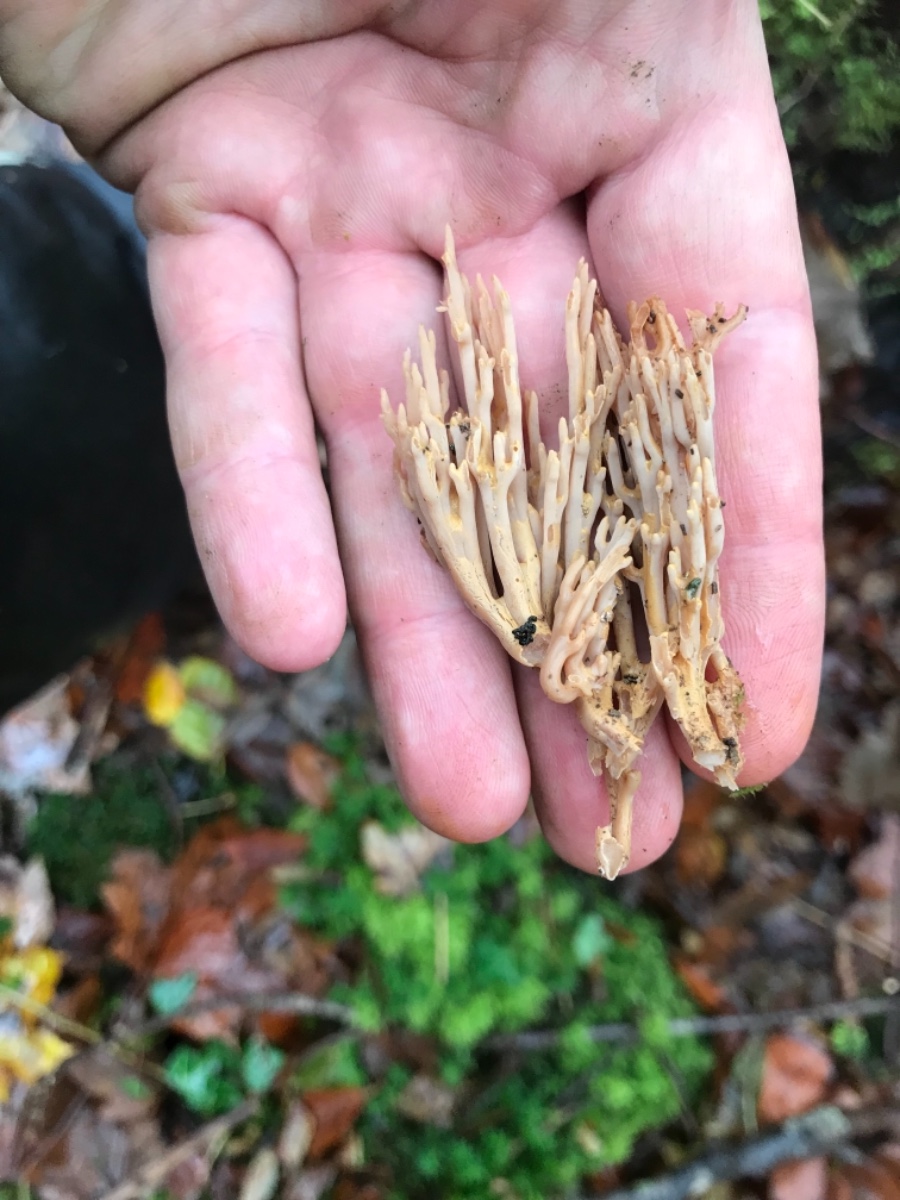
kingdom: Fungi
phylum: Basidiomycota
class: Agaricomycetes
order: Gomphales
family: Gomphaceae
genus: Ramaria
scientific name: Ramaria stricta
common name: rank koralsvamp
